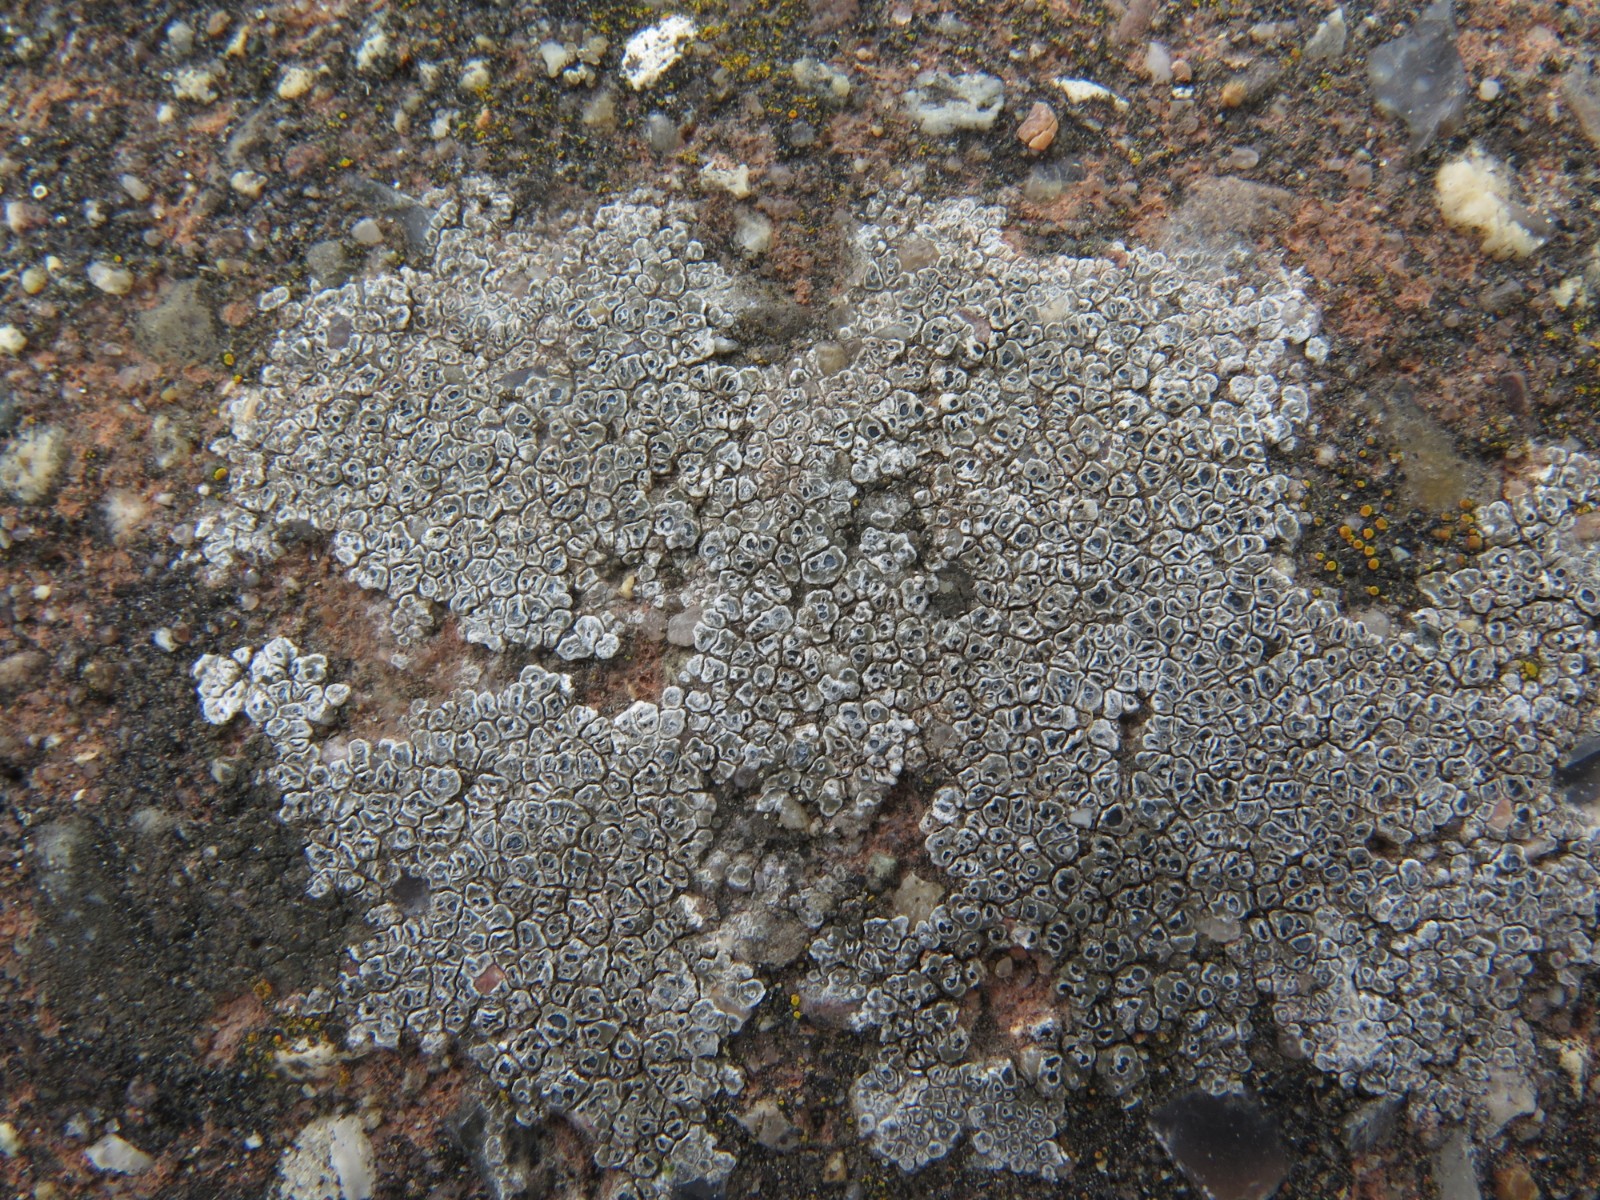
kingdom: Fungi
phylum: Ascomycota
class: Lecanoromycetes
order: Pertusariales
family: Megasporaceae
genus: Circinaria
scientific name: Circinaria contorta
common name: indviklet hulskivelav
